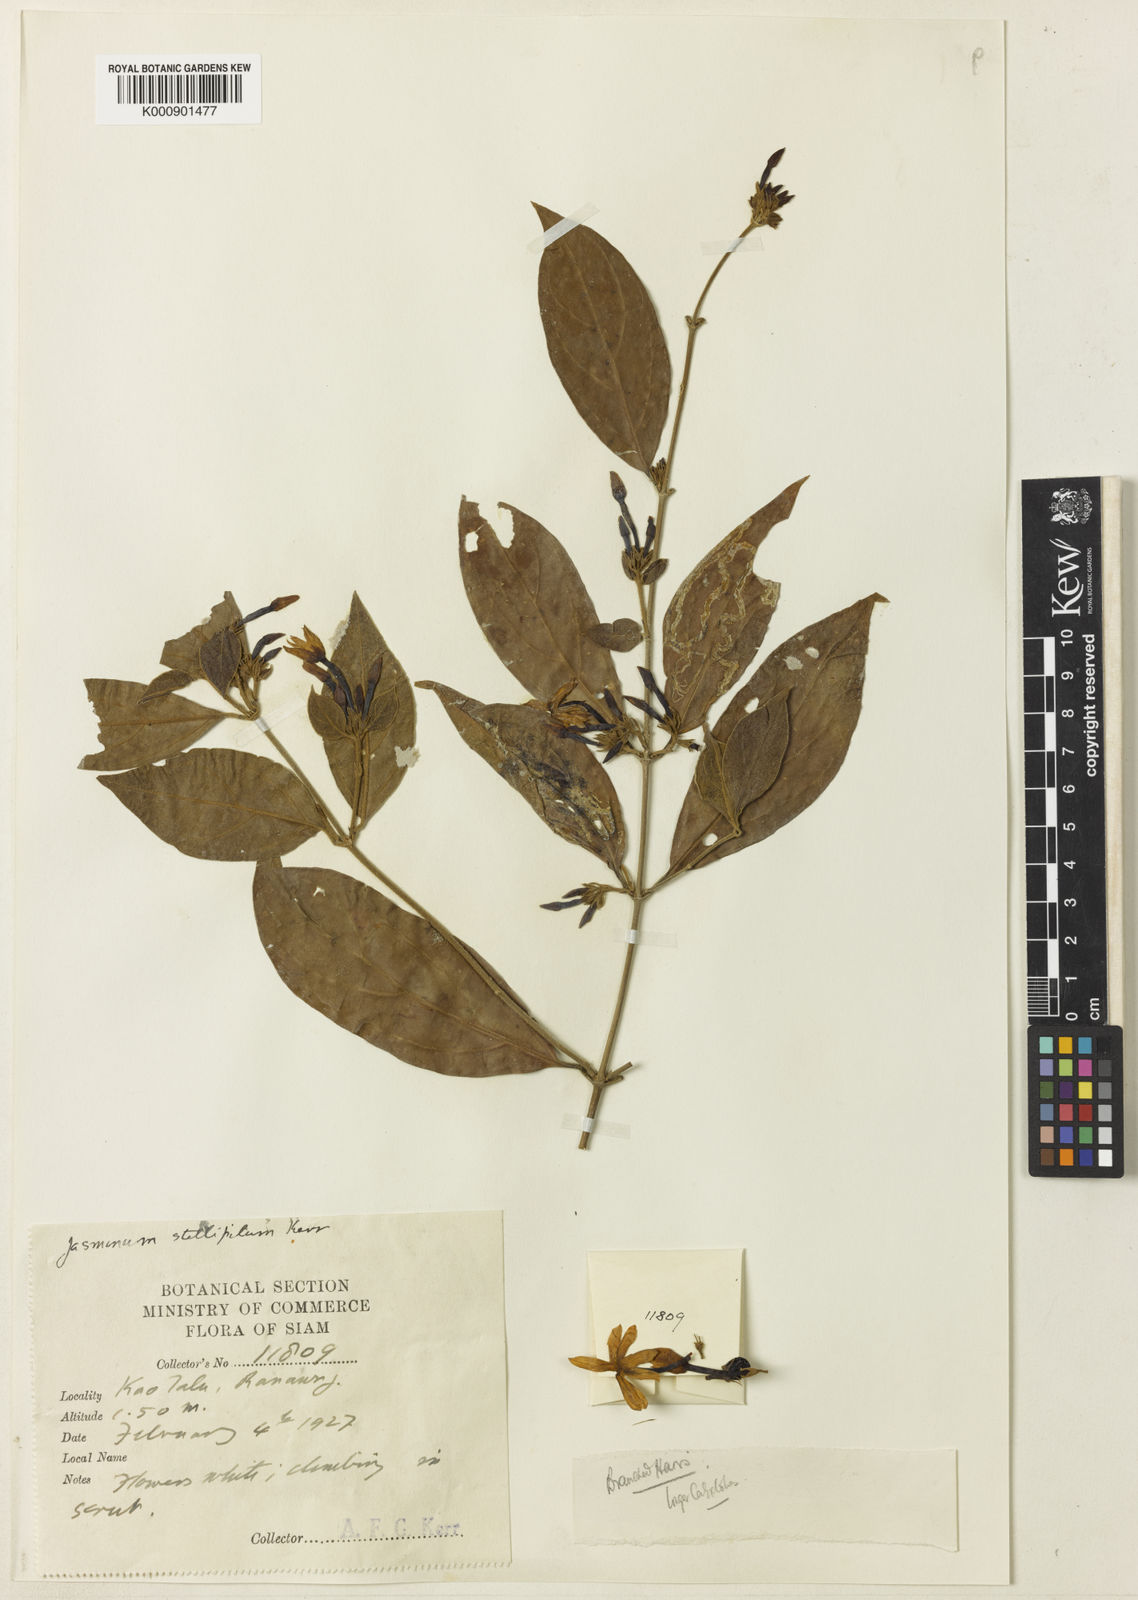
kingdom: Plantae
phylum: Tracheophyta
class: Magnoliopsida
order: Lamiales
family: Oleaceae
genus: Jasminum
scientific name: Jasminum stellipilum
